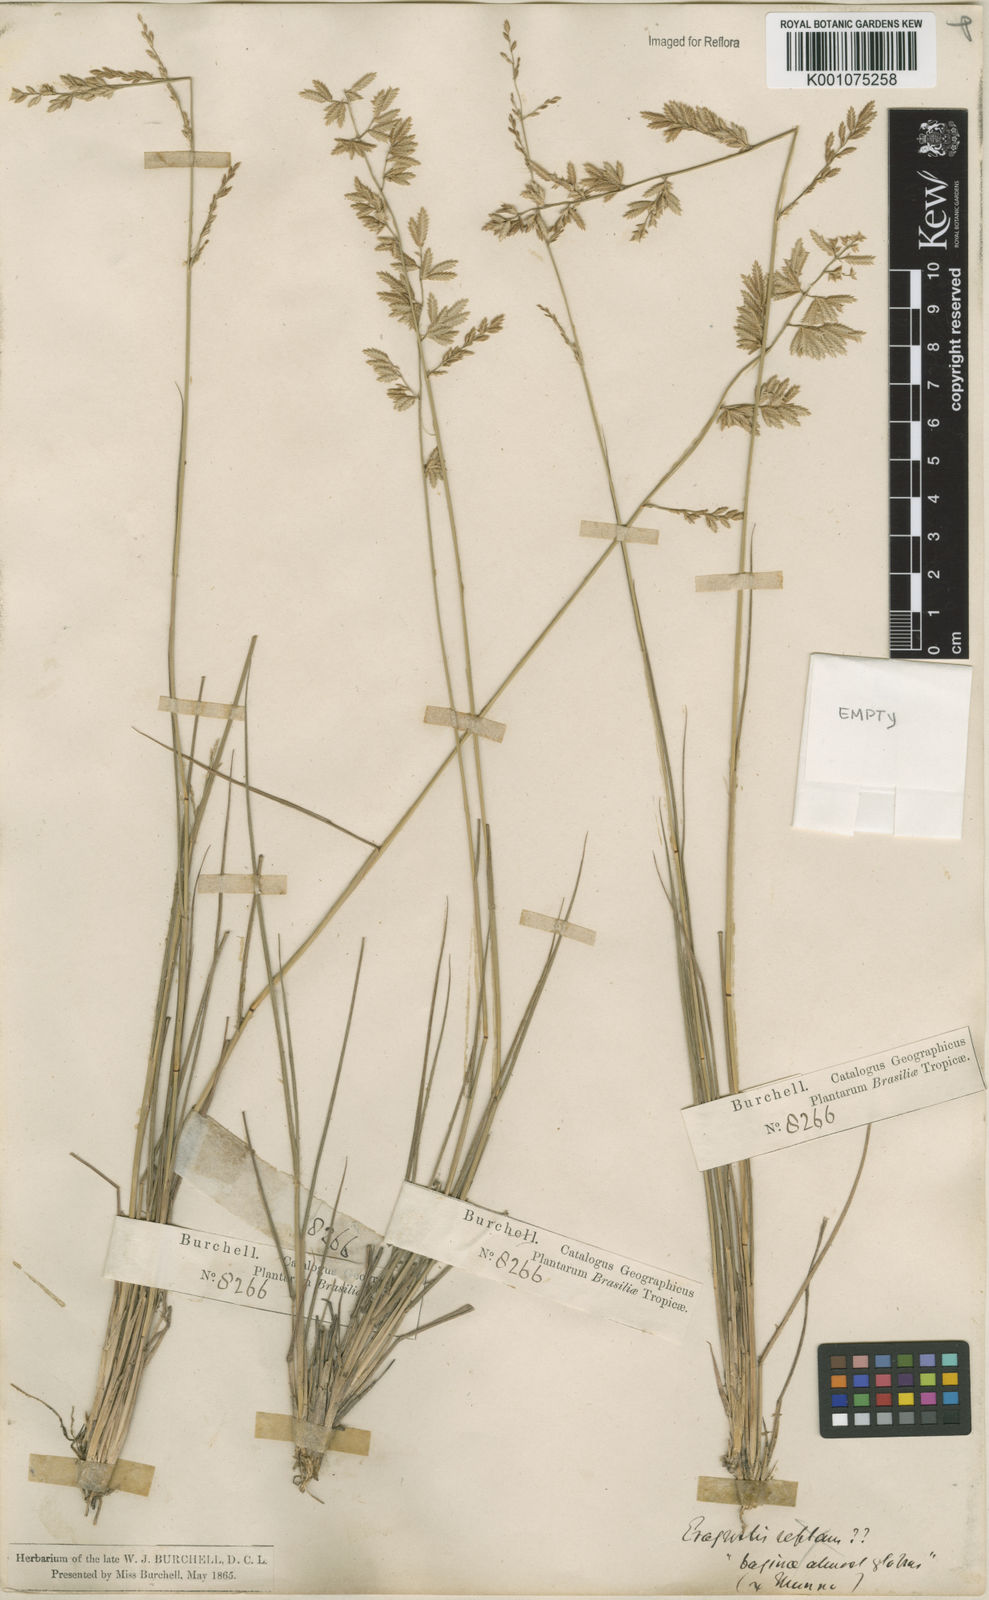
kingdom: Plantae
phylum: Tracheophyta
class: Liliopsida
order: Poales
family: Poaceae
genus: Eragrostis
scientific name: Eragrostis secundiflora
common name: Red love grass
